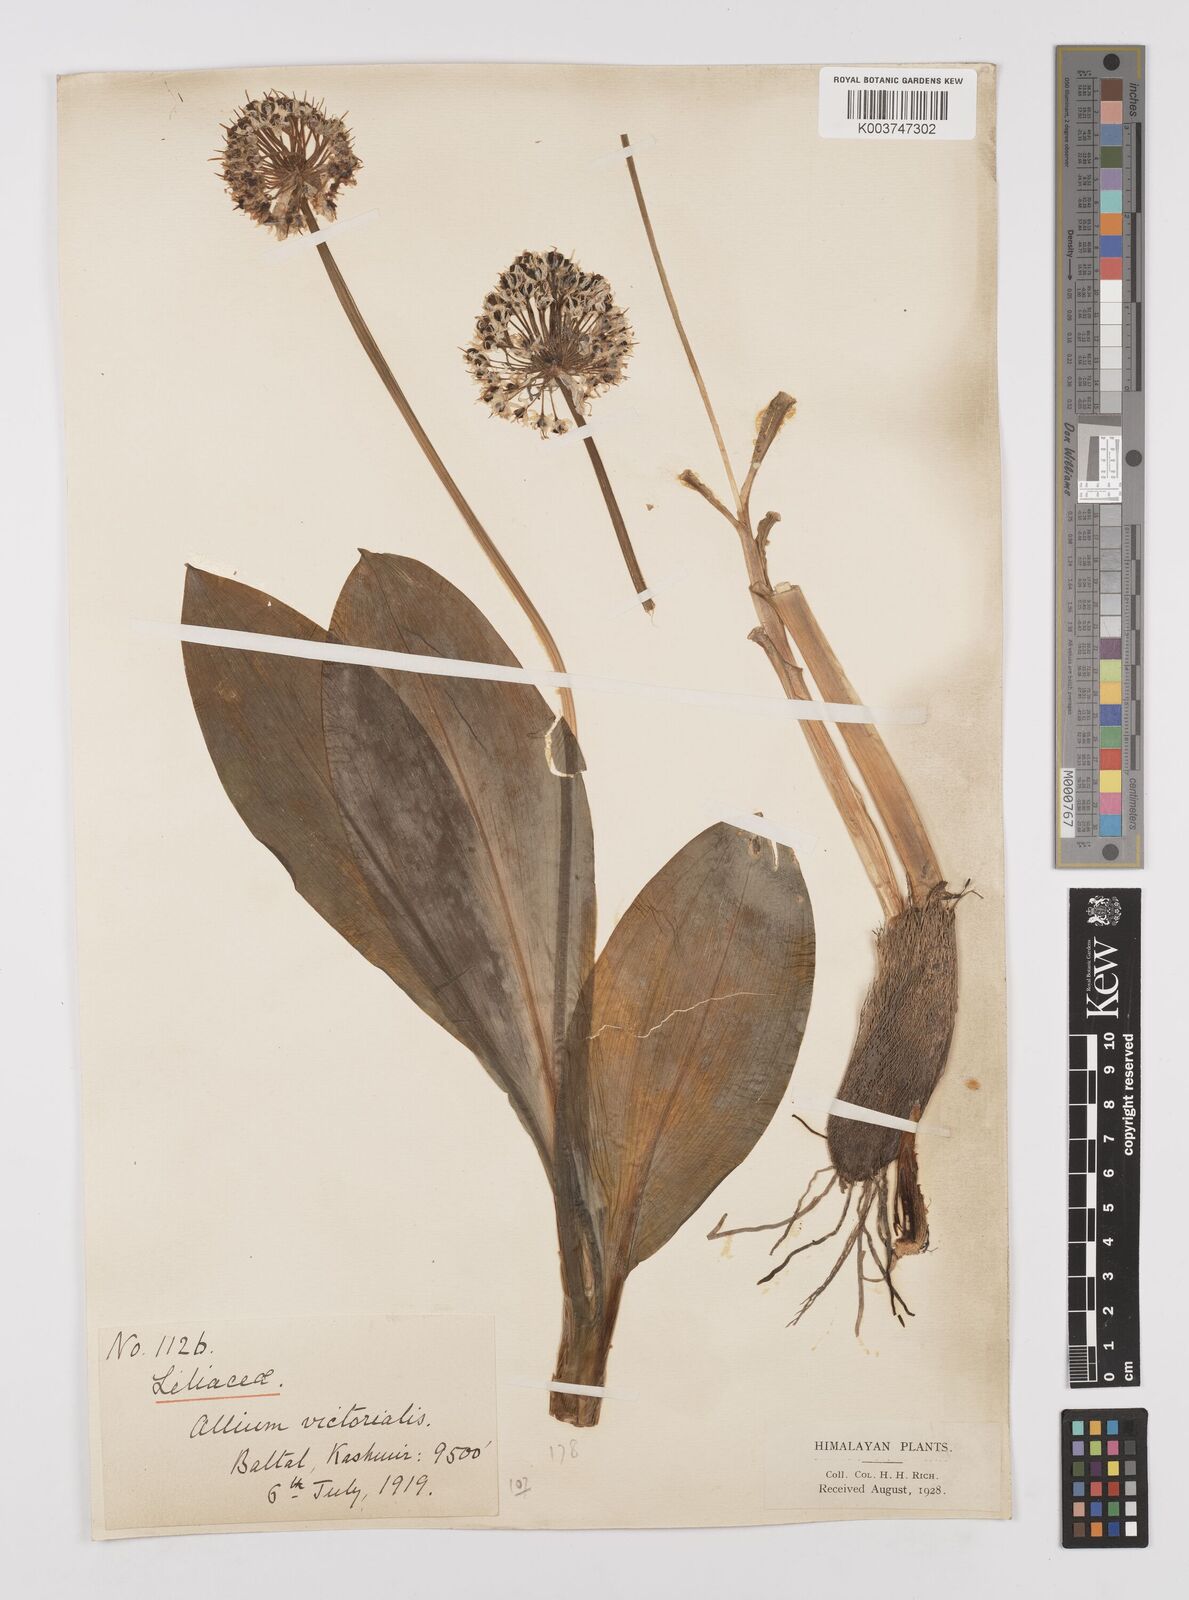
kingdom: Plantae
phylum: Tracheophyta
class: Liliopsida
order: Asparagales
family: Amaryllidaceae
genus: Allium
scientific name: Allium victorialis
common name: Alpine leek
